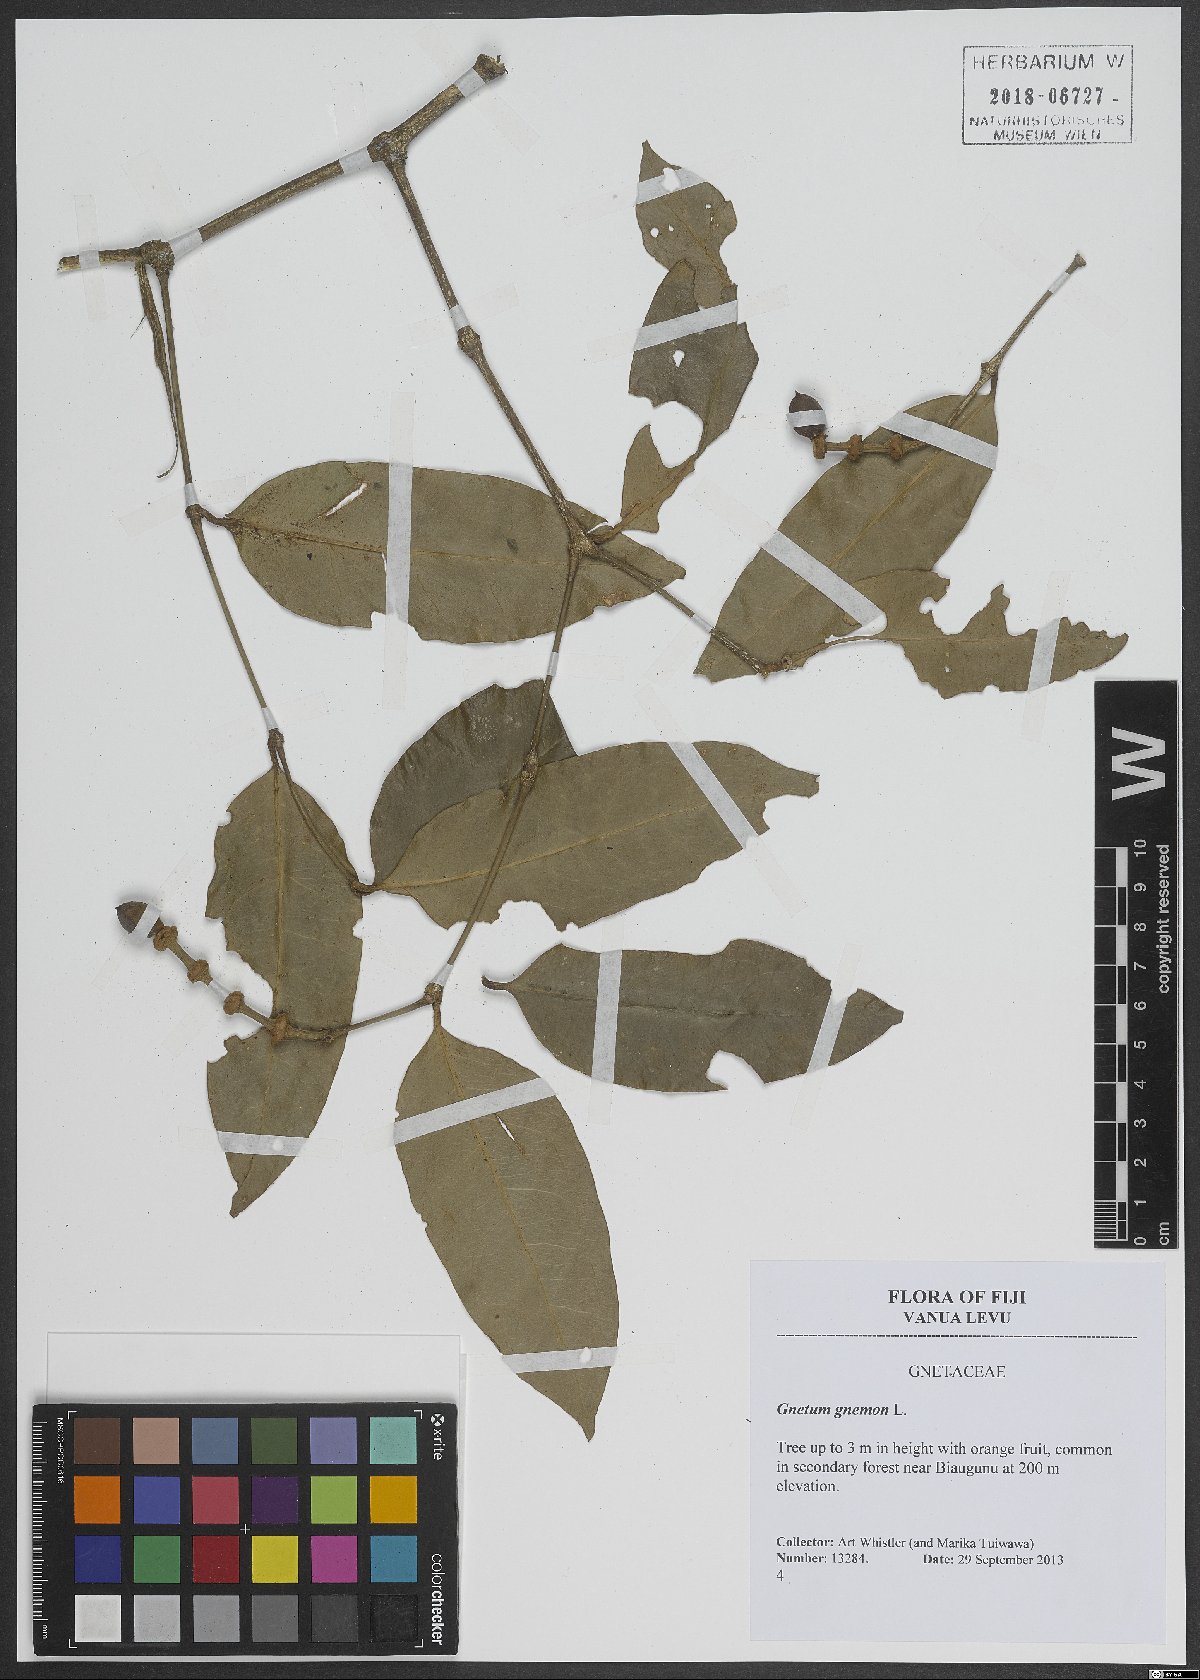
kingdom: Plantae
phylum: Tracheophyta
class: Gnetopsida
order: Gnetales
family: Gnetaceae
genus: Gnetum
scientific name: Gnetum gnemon
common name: Spanish joint-fir
